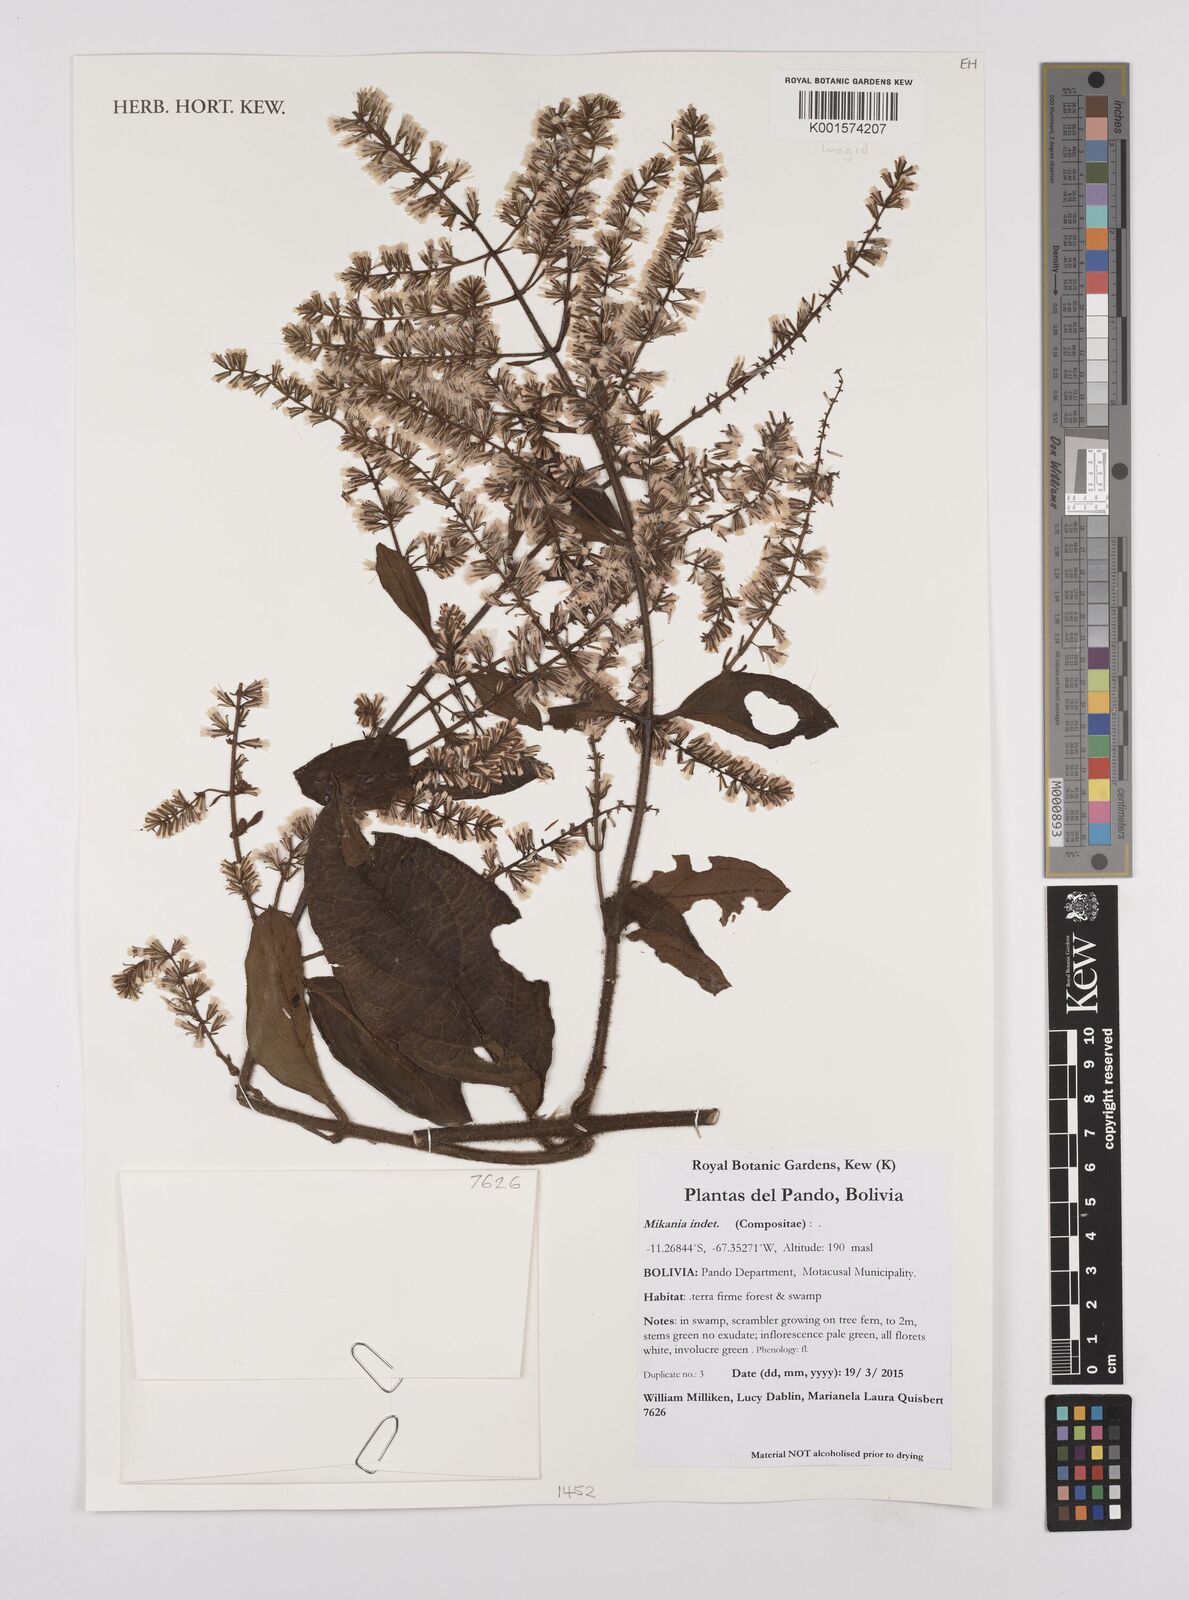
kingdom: Plantae
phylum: Tracheophyta
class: Magnoliopsida
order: Asterales
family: Asteraceae
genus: Mikania
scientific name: Mikania
